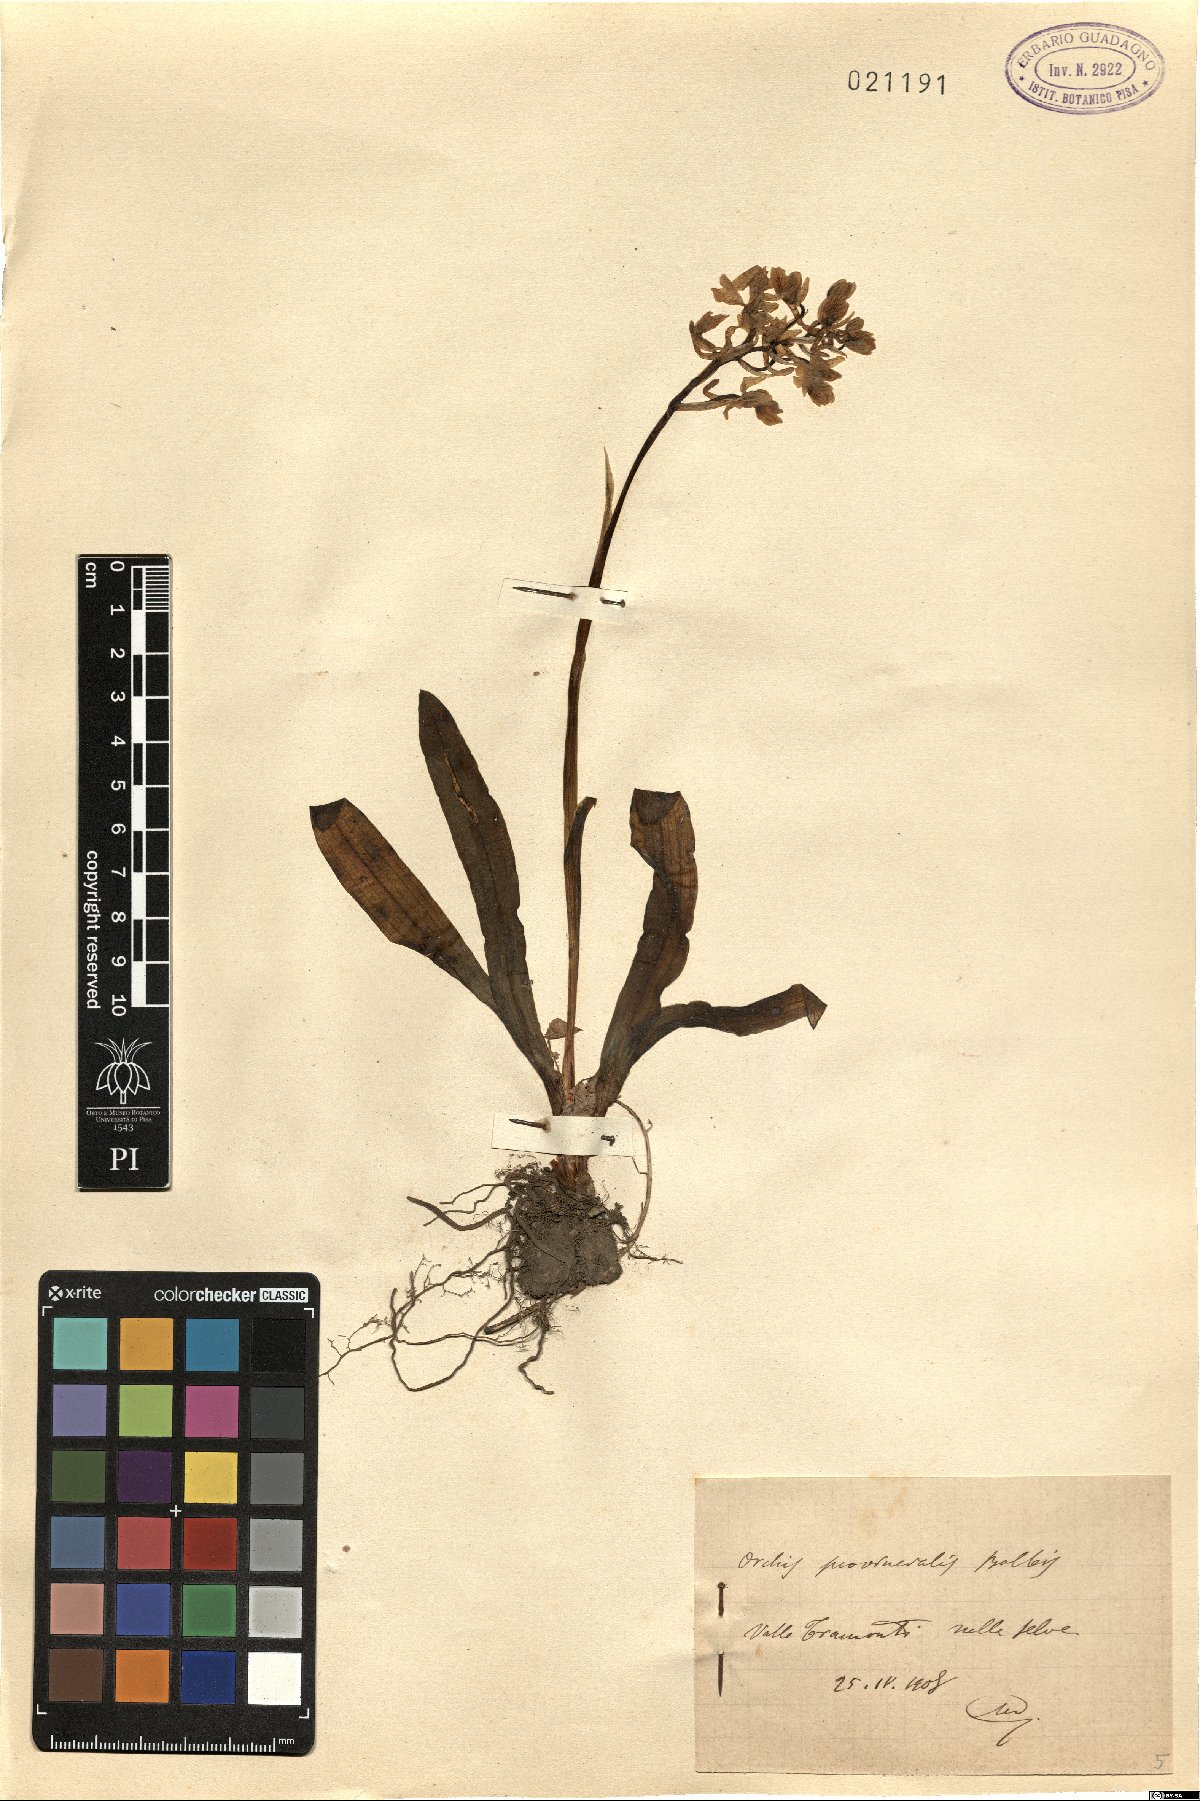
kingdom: Plantae
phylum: Tracheophyta
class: Liliopsida
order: Asparagales
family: Orchidaceae
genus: Orchis
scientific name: Orchis provincialis
